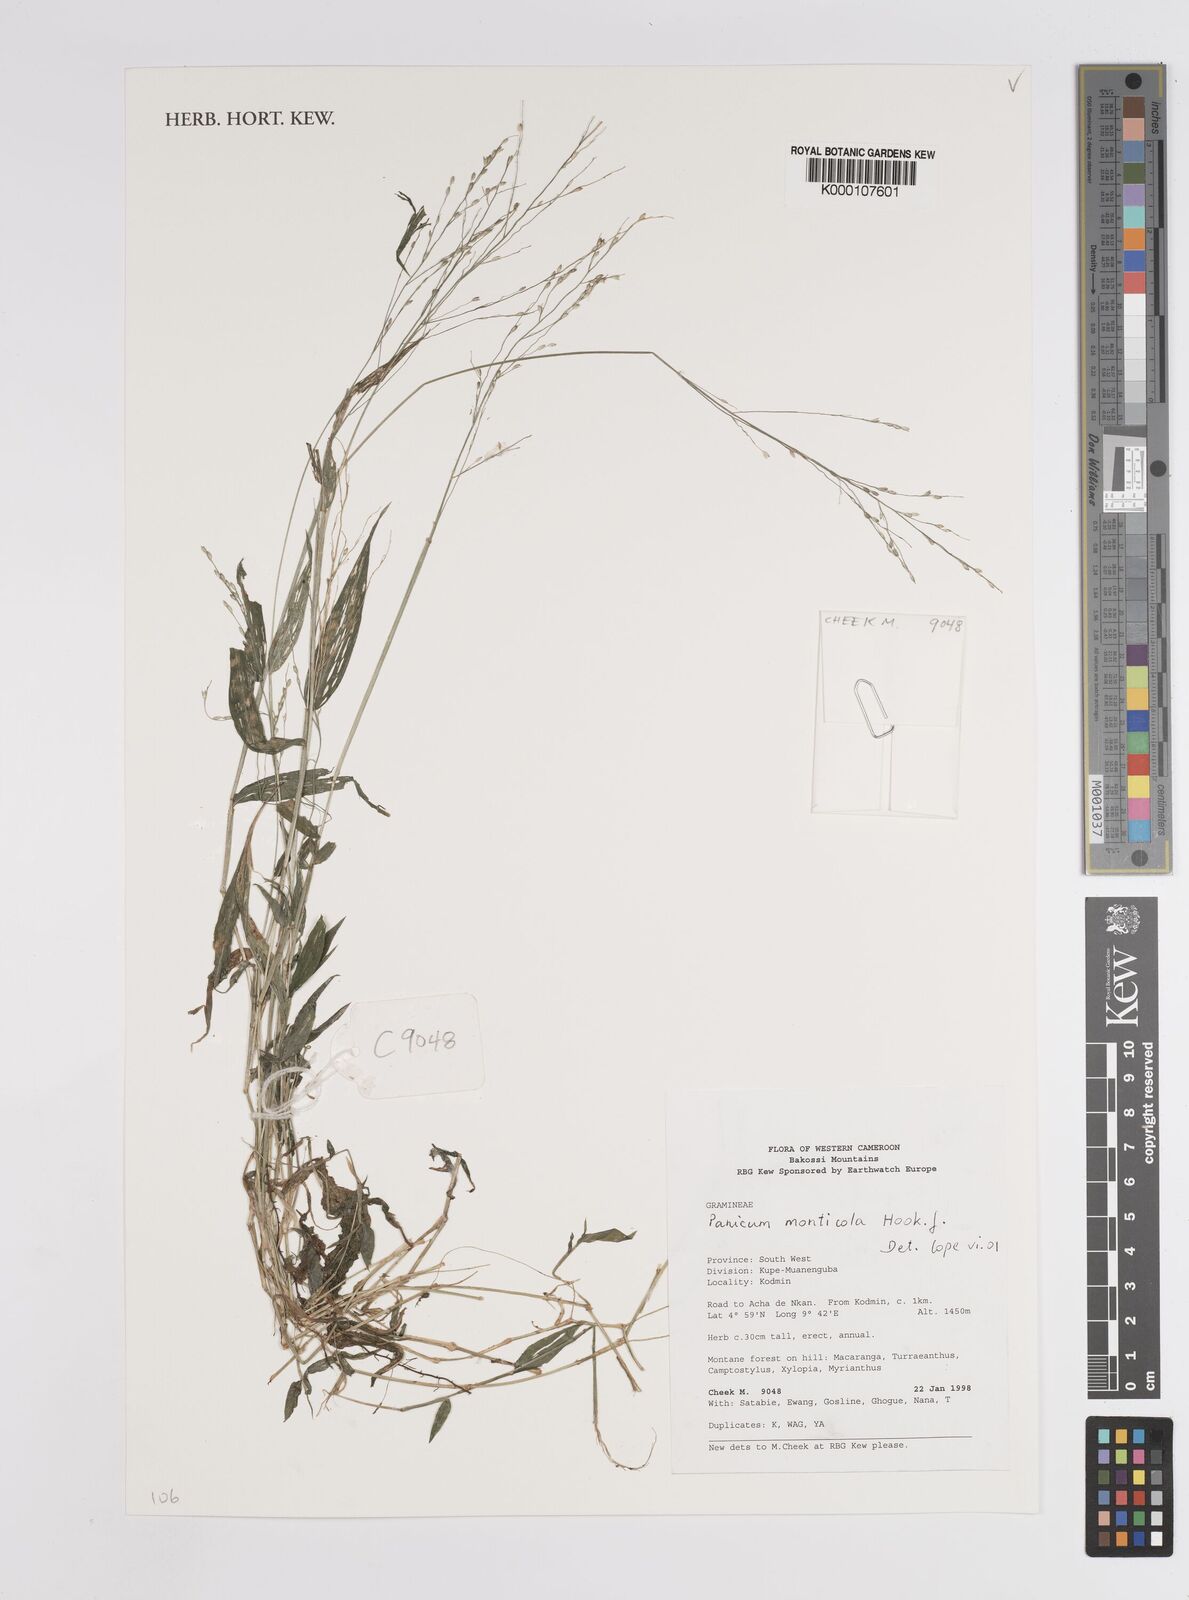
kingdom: Plantae
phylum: Tracheophyta
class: Liliopsida
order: Poales
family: Poaceae
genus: Panicum
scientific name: Panicum monticola
